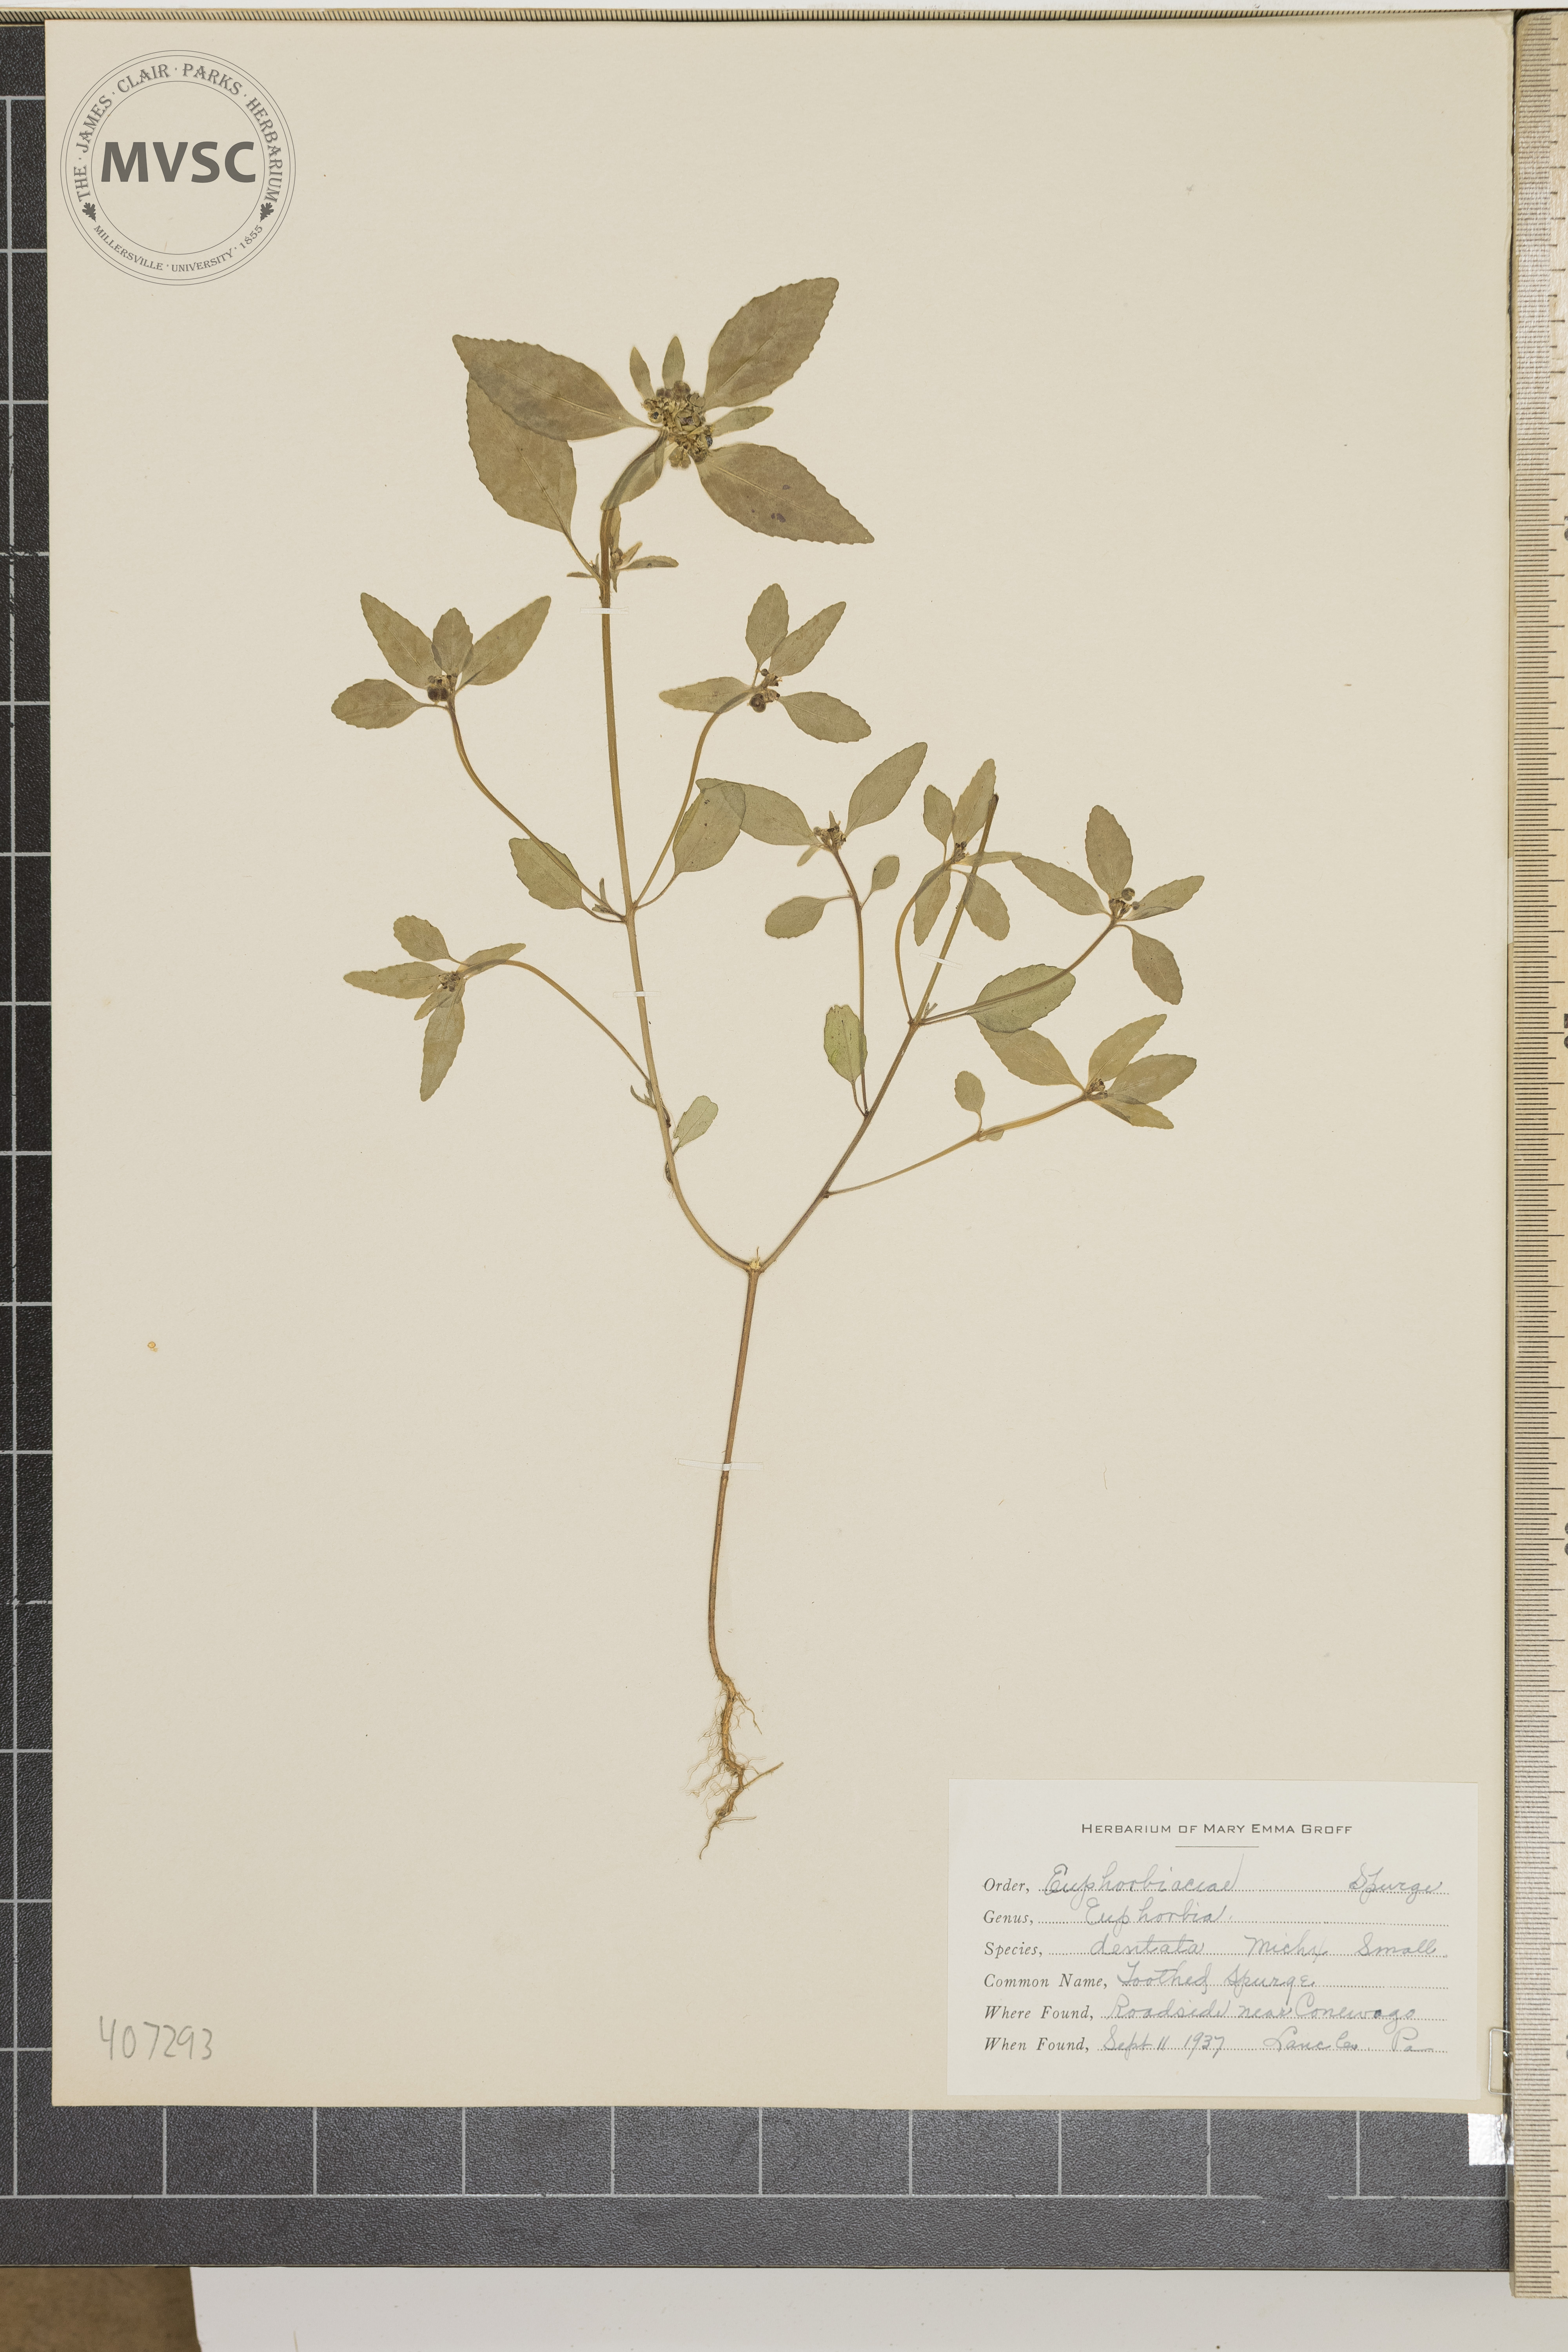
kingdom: Plantae
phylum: Tracheophyta
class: Magnoliopsida
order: Malpighiales
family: Euphorbiaceae
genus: Euphorbia
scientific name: Euphorbia dentata
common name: Toothed Spurge
